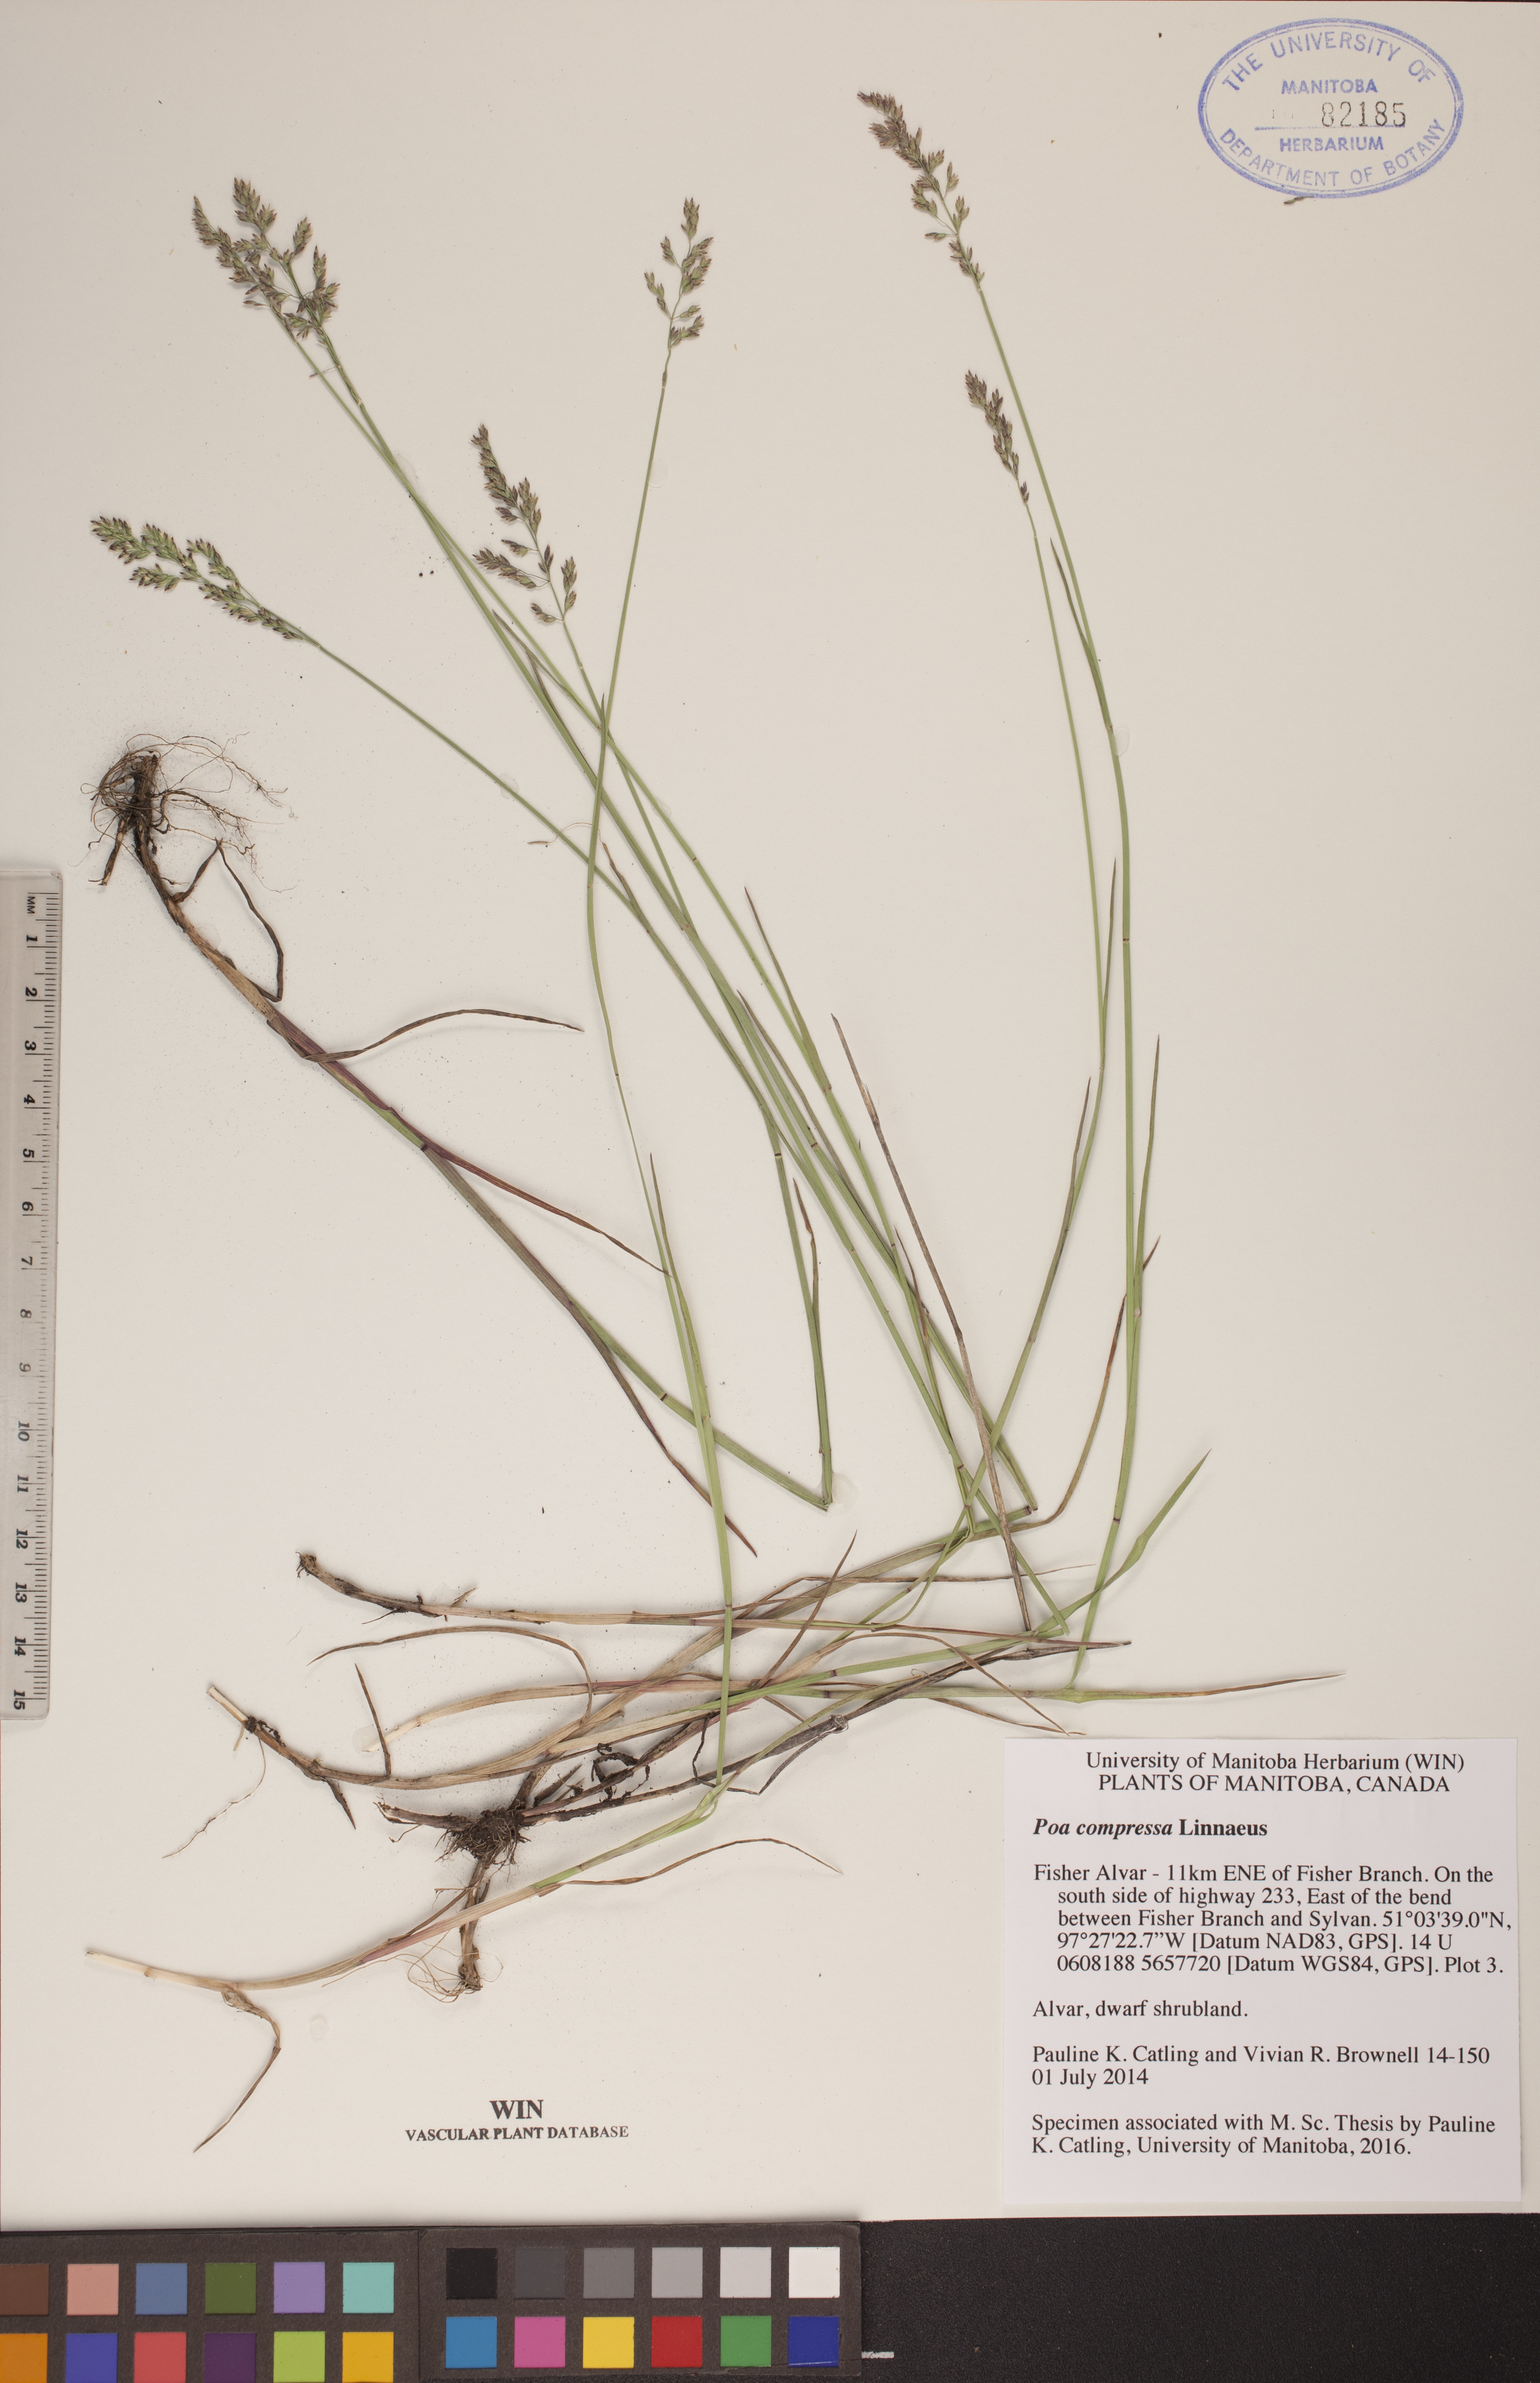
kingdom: Plantae
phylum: Tracheophyta
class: Liliopsida
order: Poales
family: Poaceae
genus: Poa
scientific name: Poa compressa
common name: Canada bluegrass
